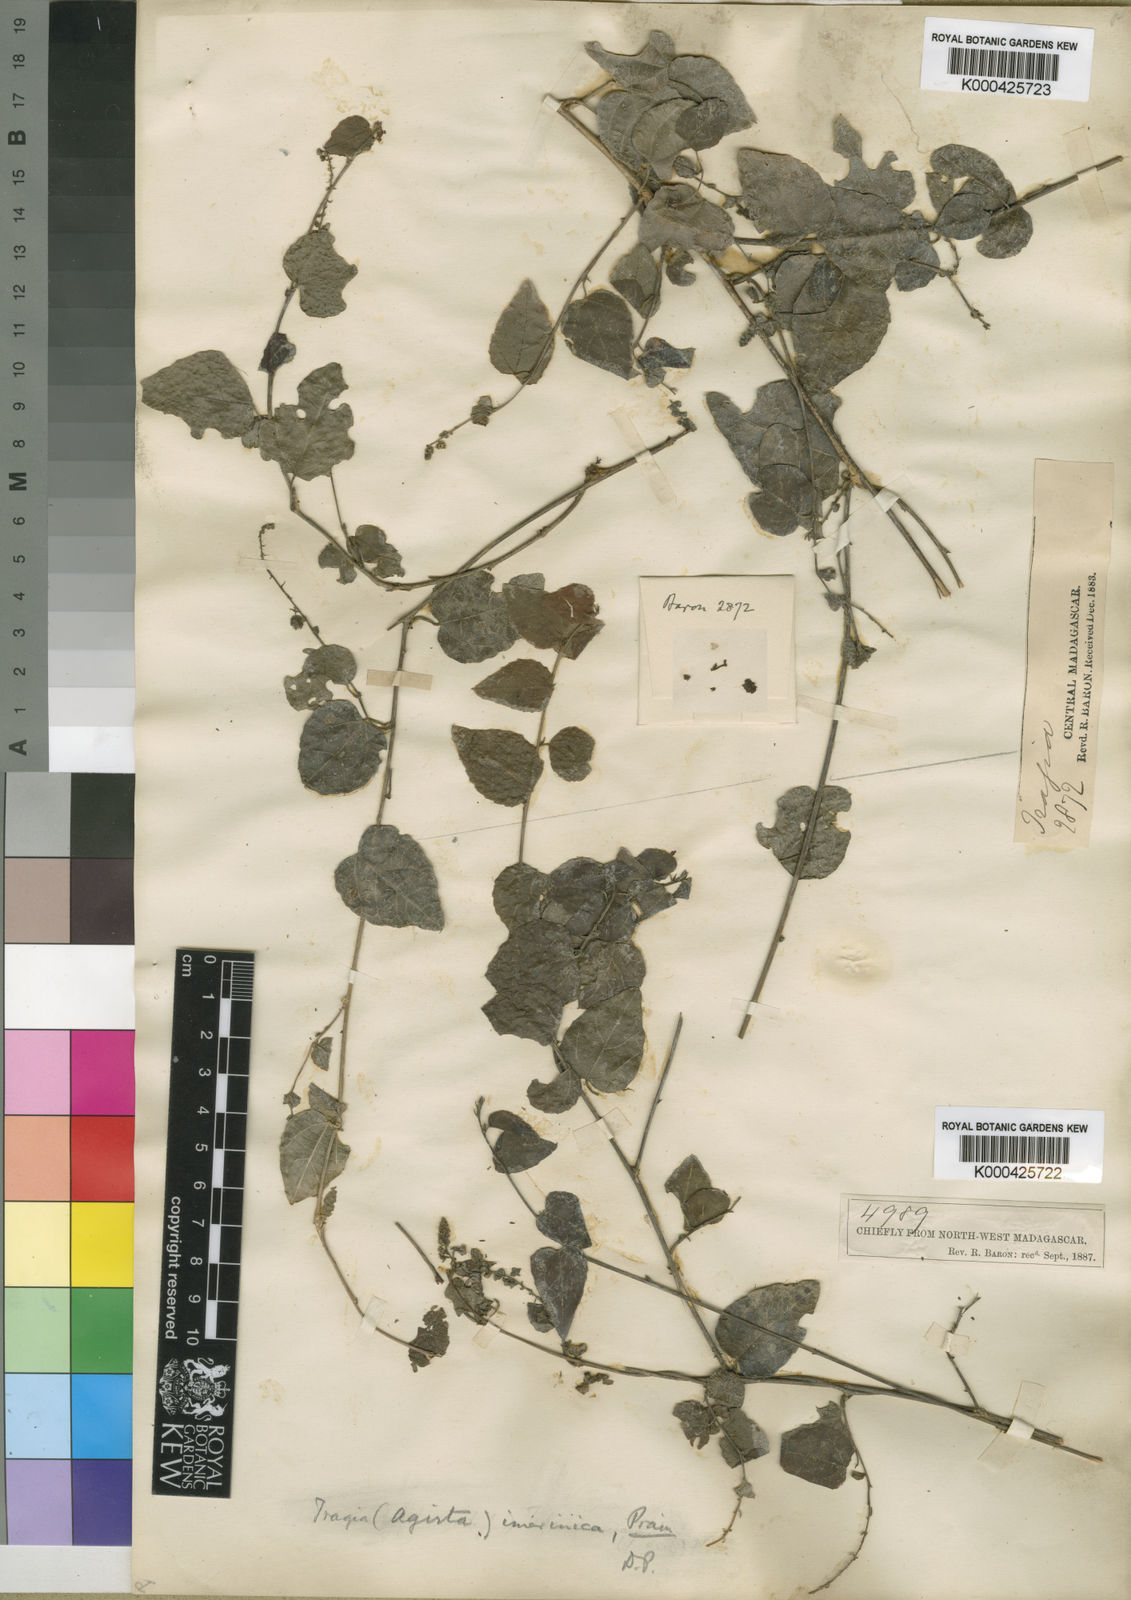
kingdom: Plantae
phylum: Tracheophyta
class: Magnoliopsida
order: Malpighiales
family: Euphorbiaceae
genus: Tragia
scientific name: Tragia imerinica
